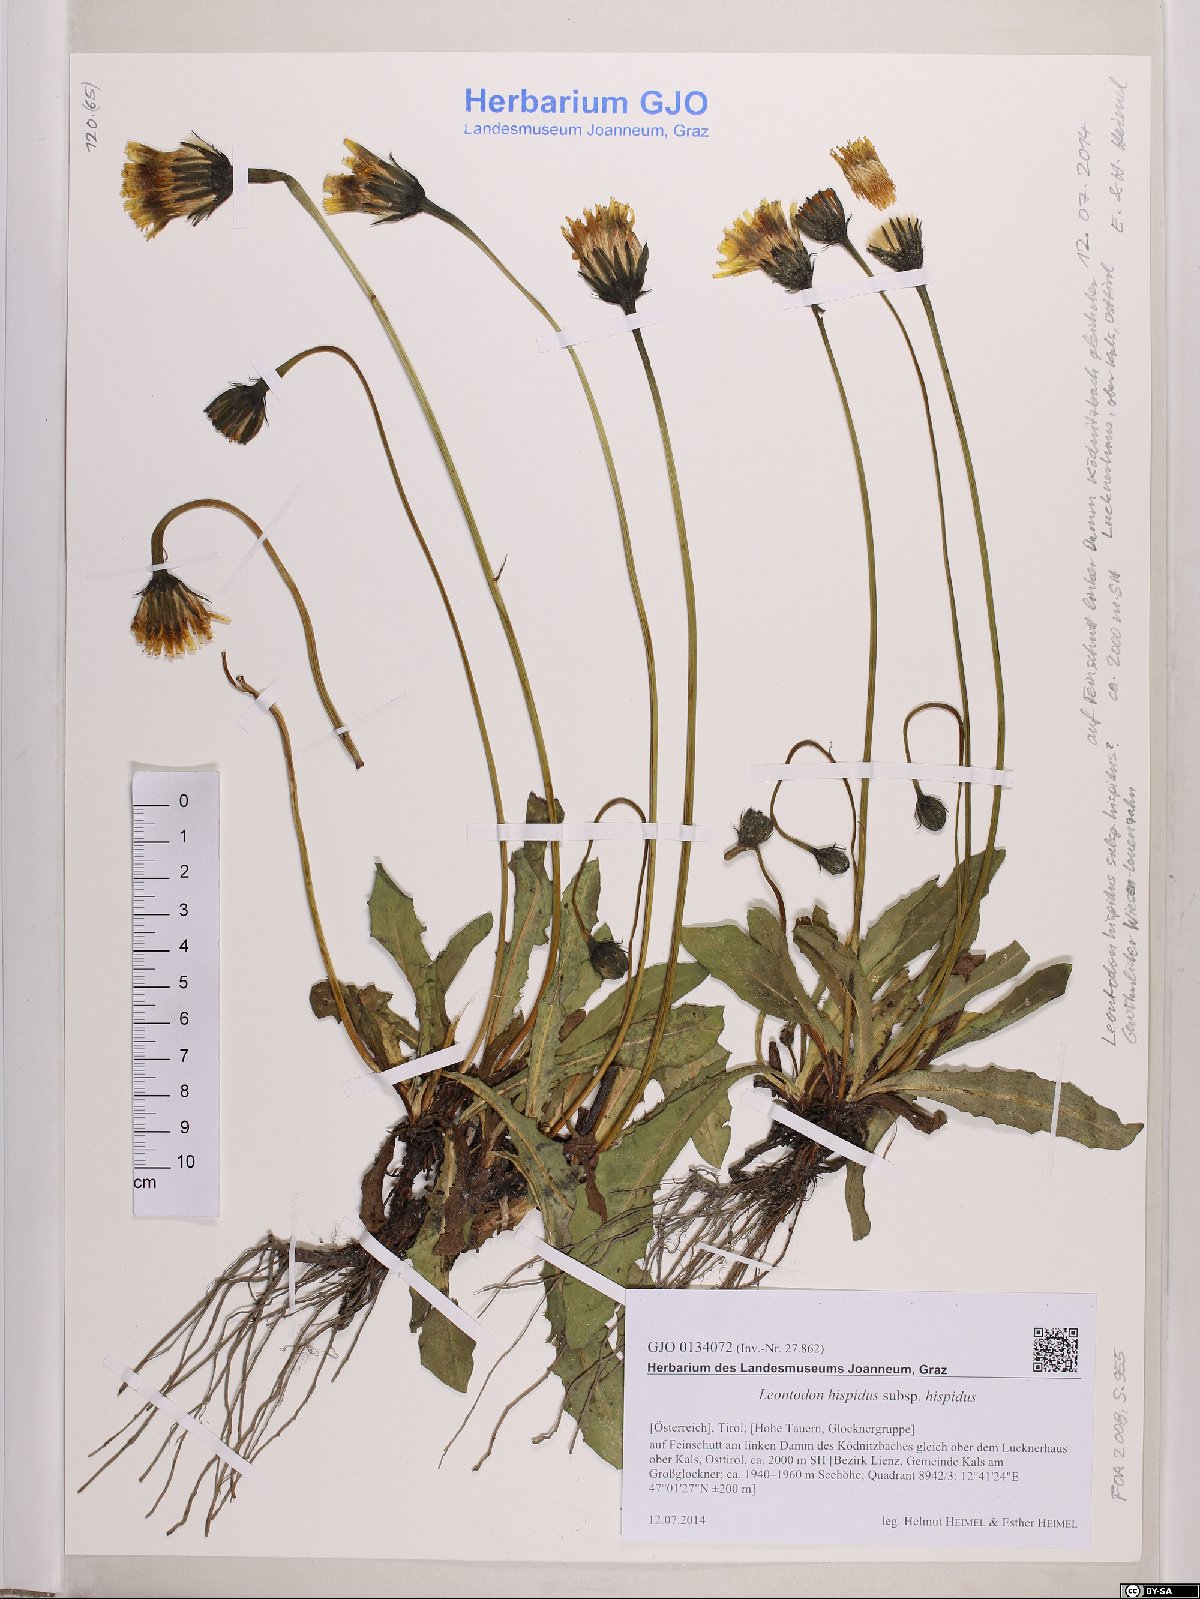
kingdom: Plantae
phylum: Tracheophyta
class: Magnoliopsida
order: Asterales
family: Asteraceae
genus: Leontodon
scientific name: Leontodon hispidus
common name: Rough hawkbit
